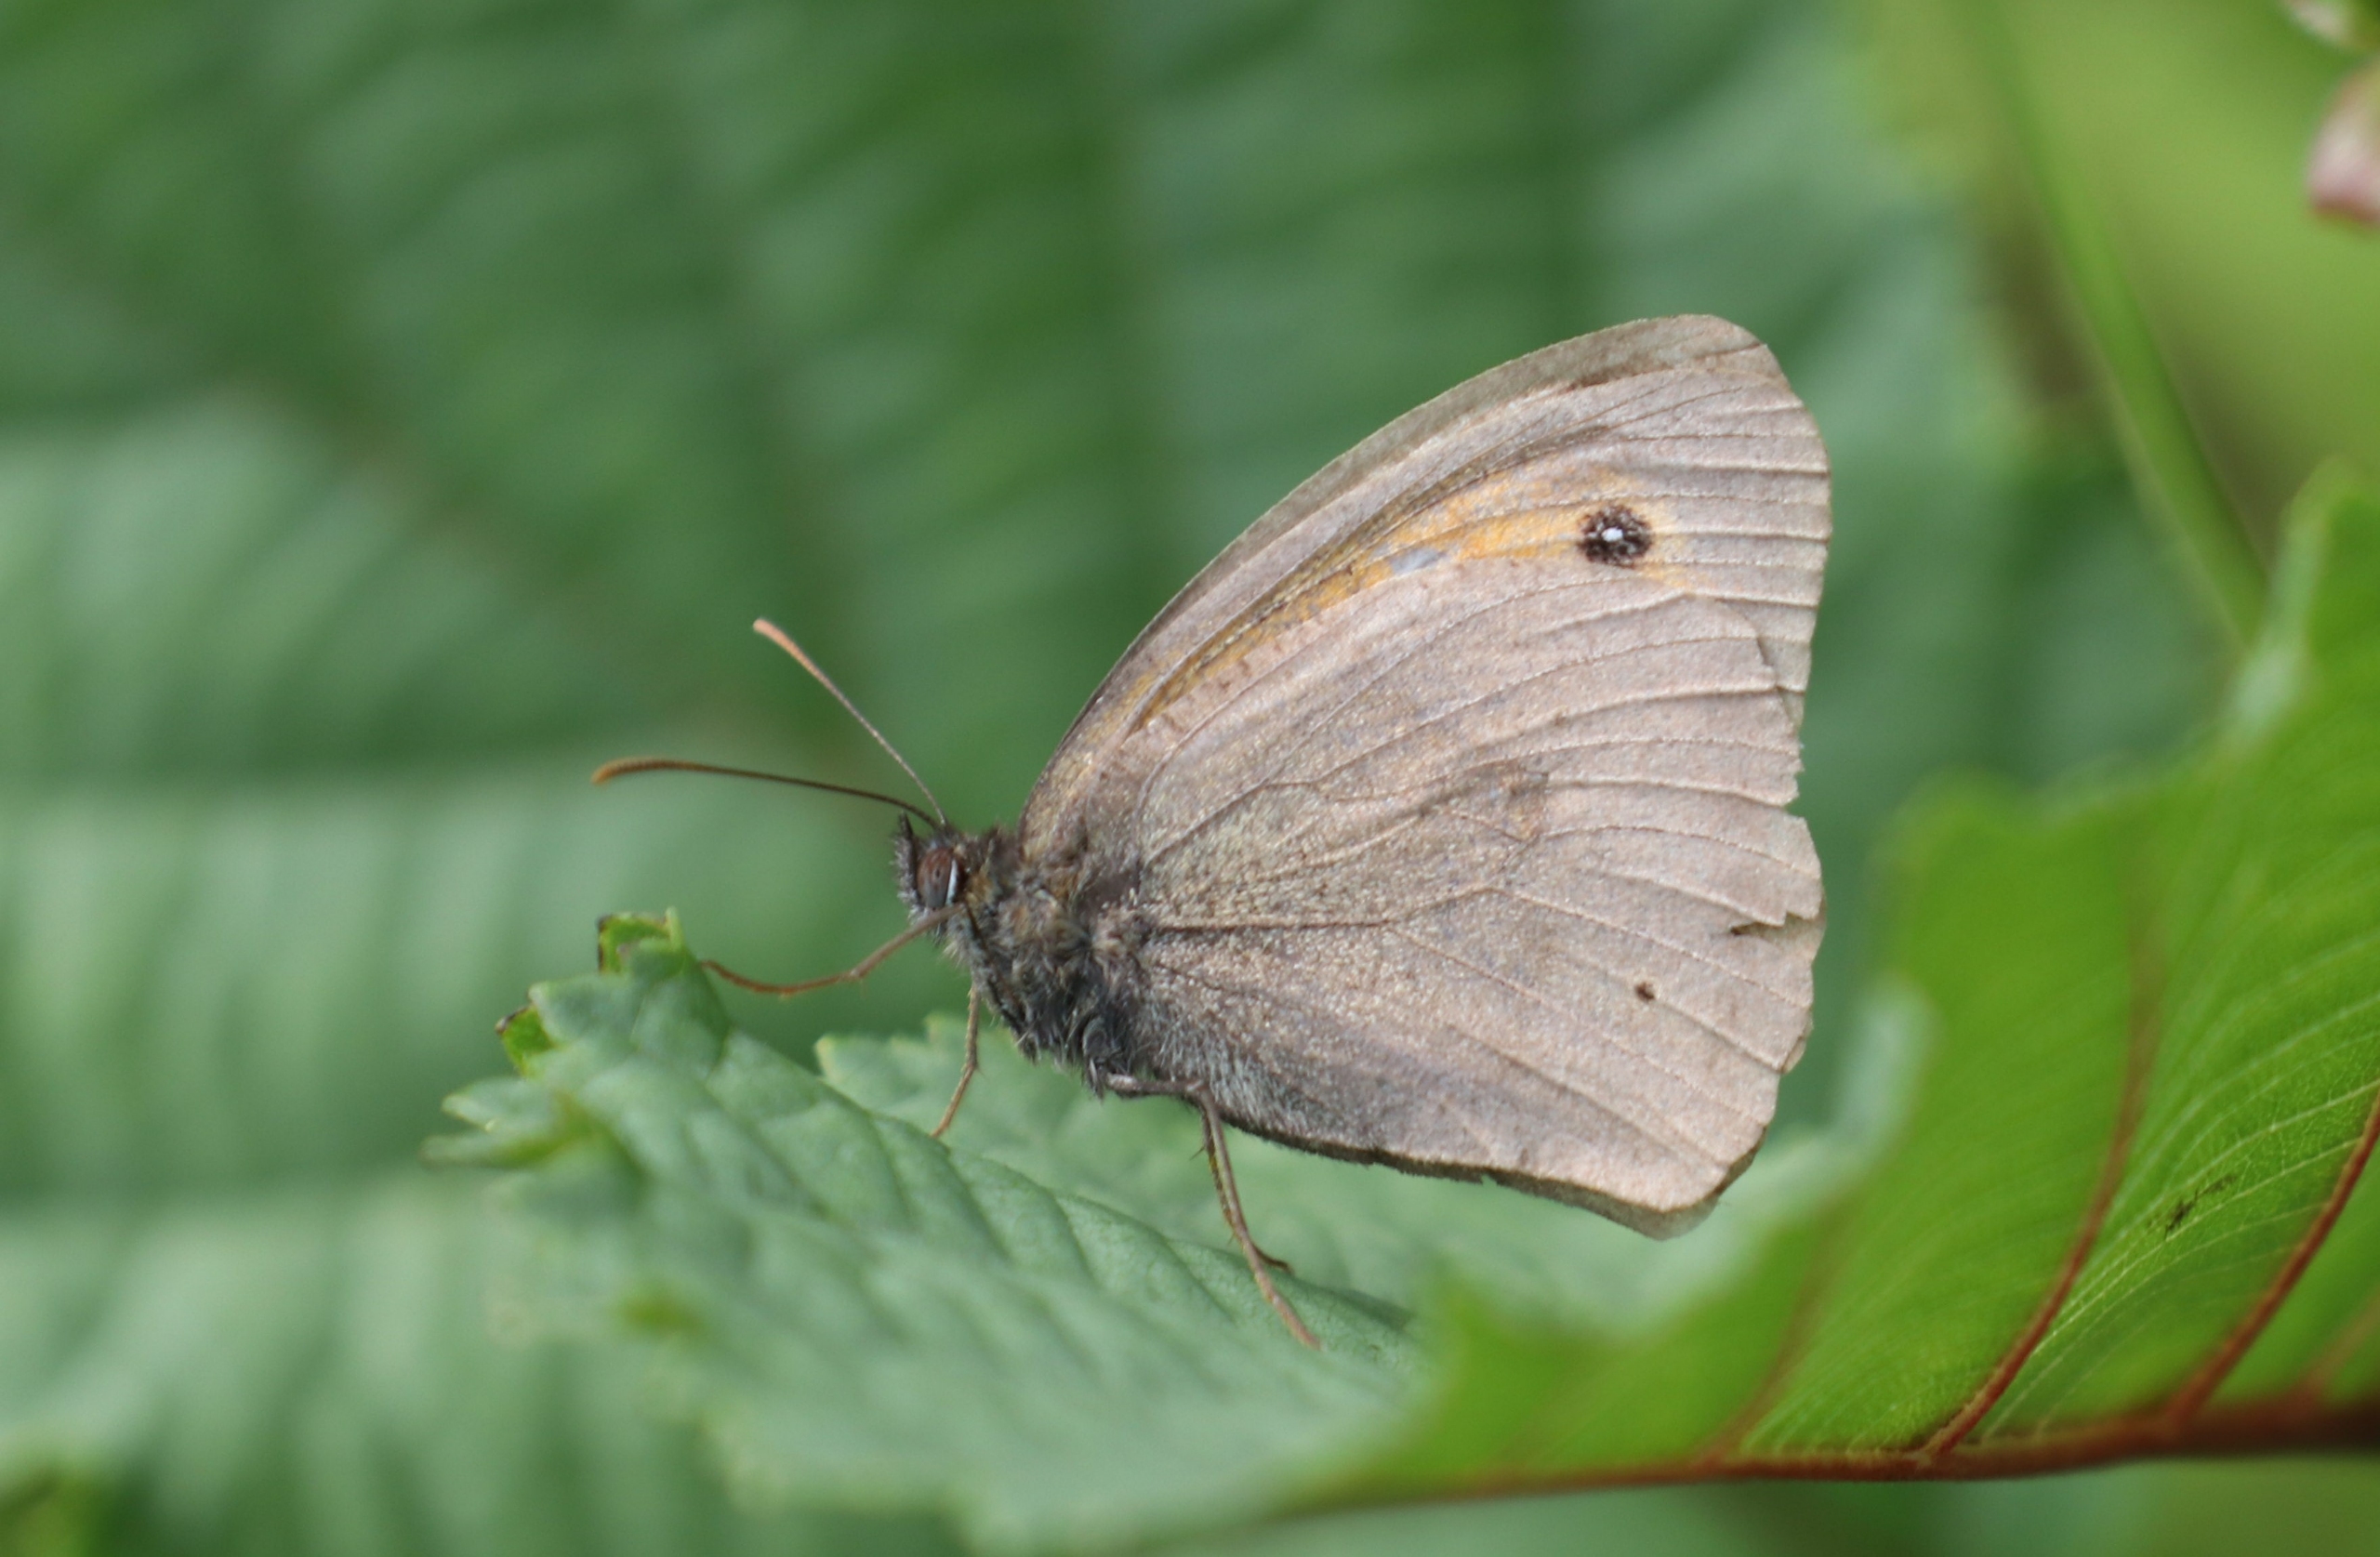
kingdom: Animalia
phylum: Arthropoda
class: Insecta
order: Lepidoptera
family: Nymphalidae
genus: Maniola
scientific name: Maniola jurtina
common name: Græsrandøje
